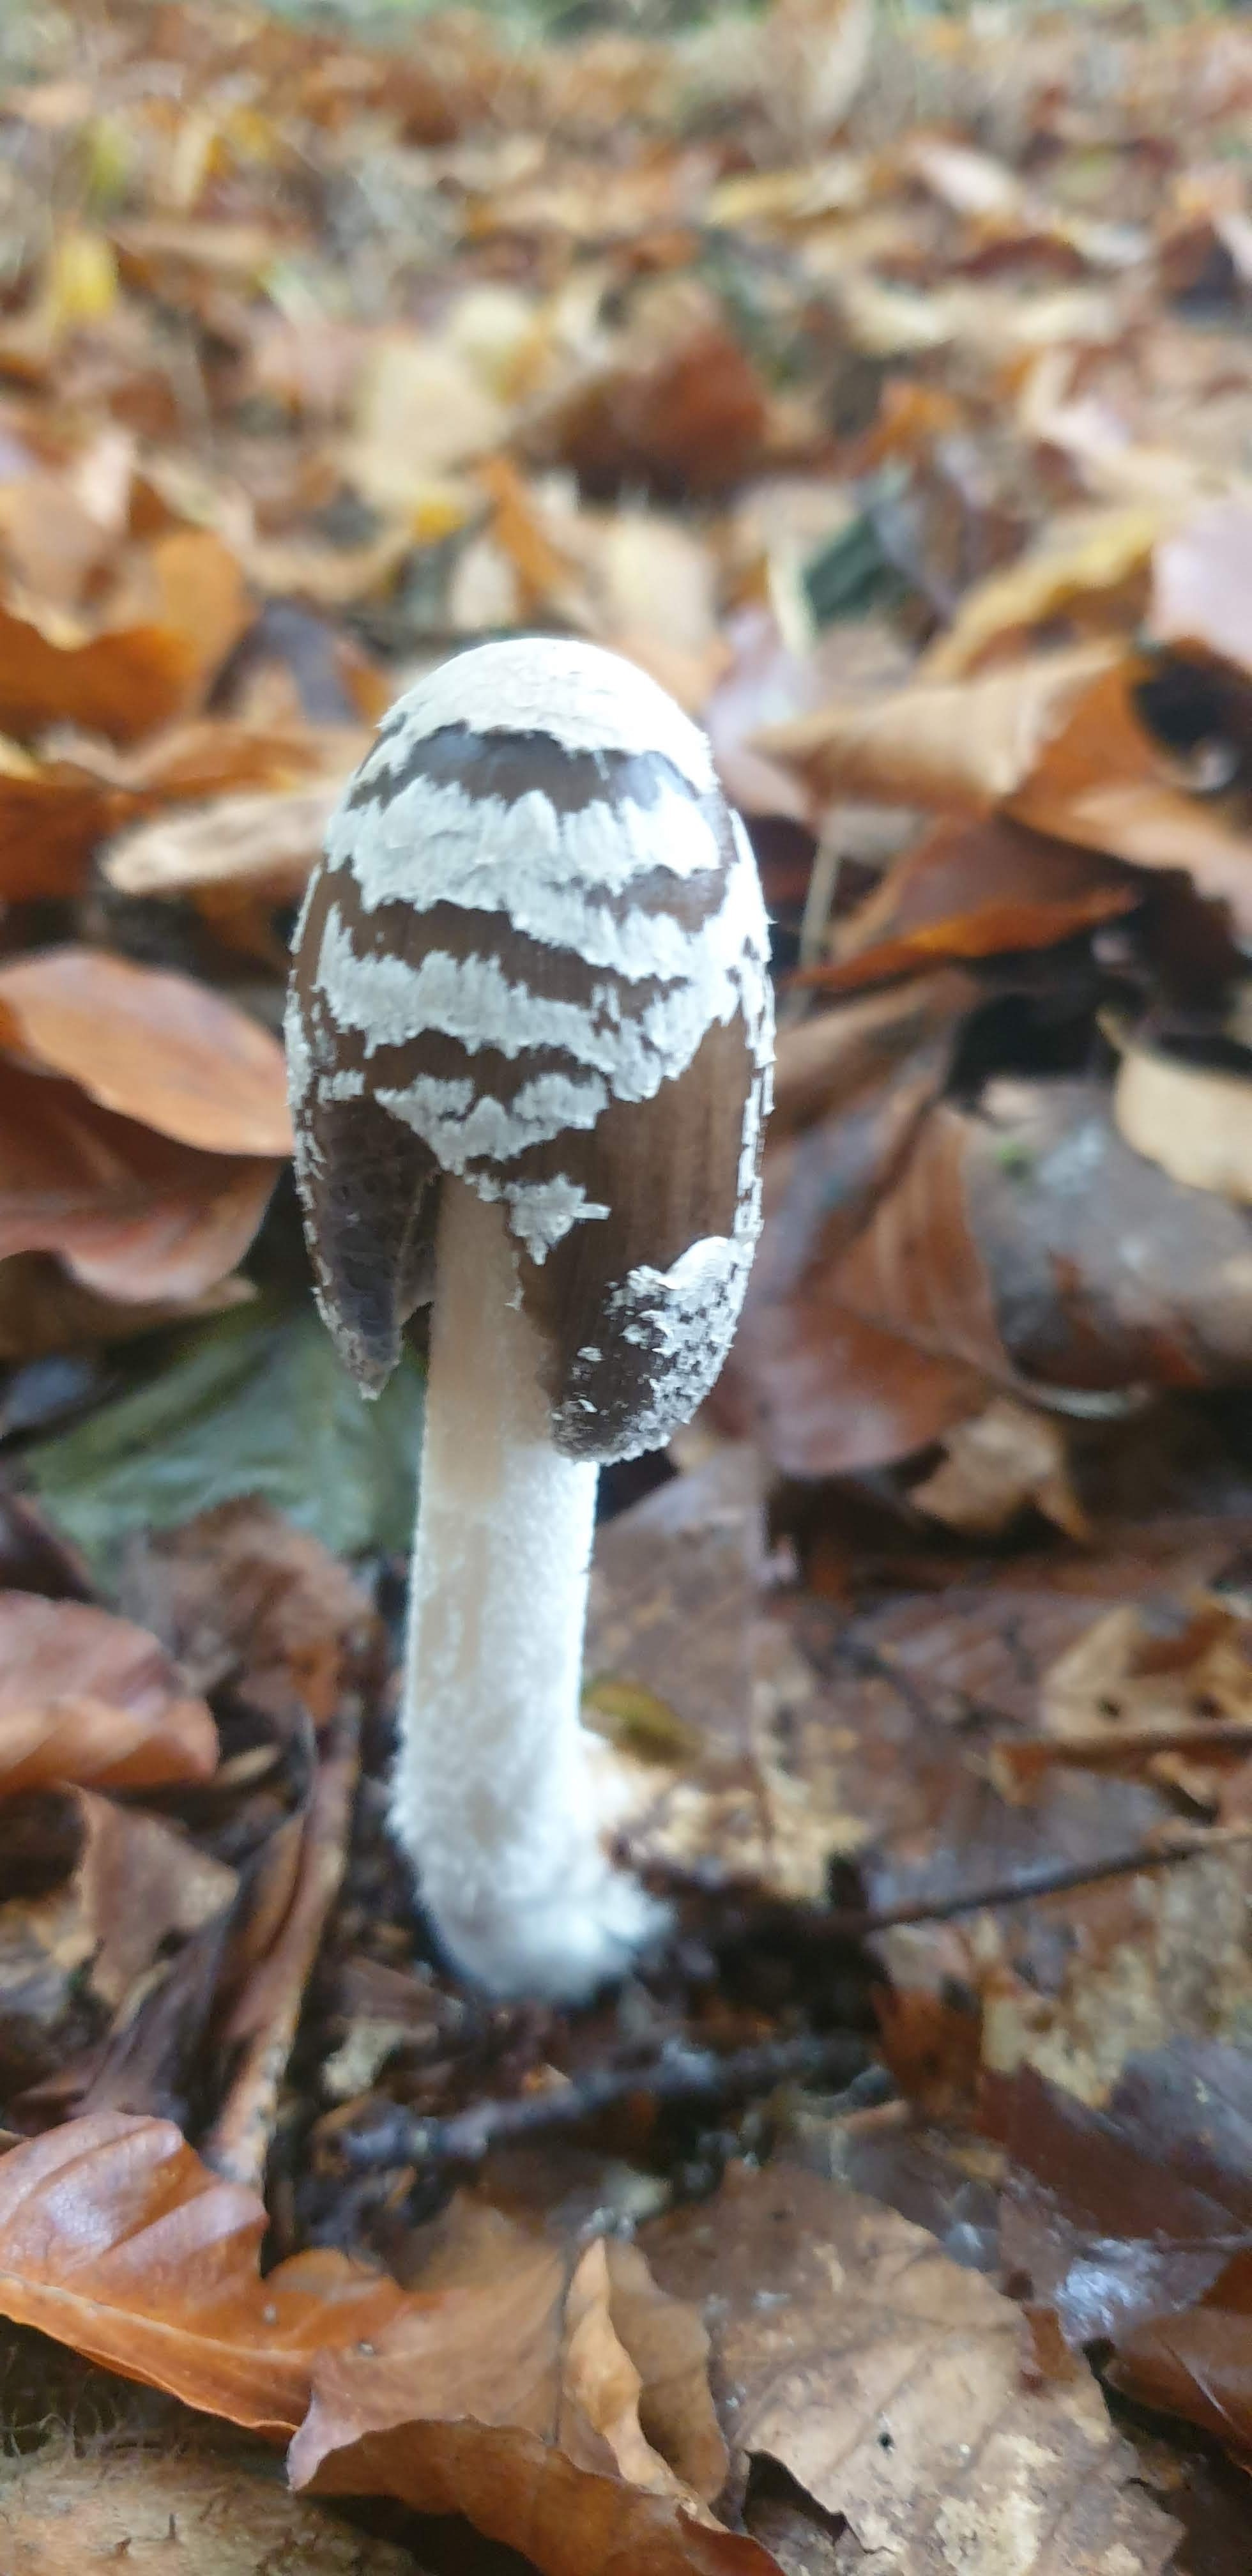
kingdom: Fungi
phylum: Basidiomycota
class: Agaricomycetes
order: Agaricales
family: Psathyrellaceae
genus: Coprinopsis
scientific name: Coprinopsis picacea
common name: skade-blækhat
